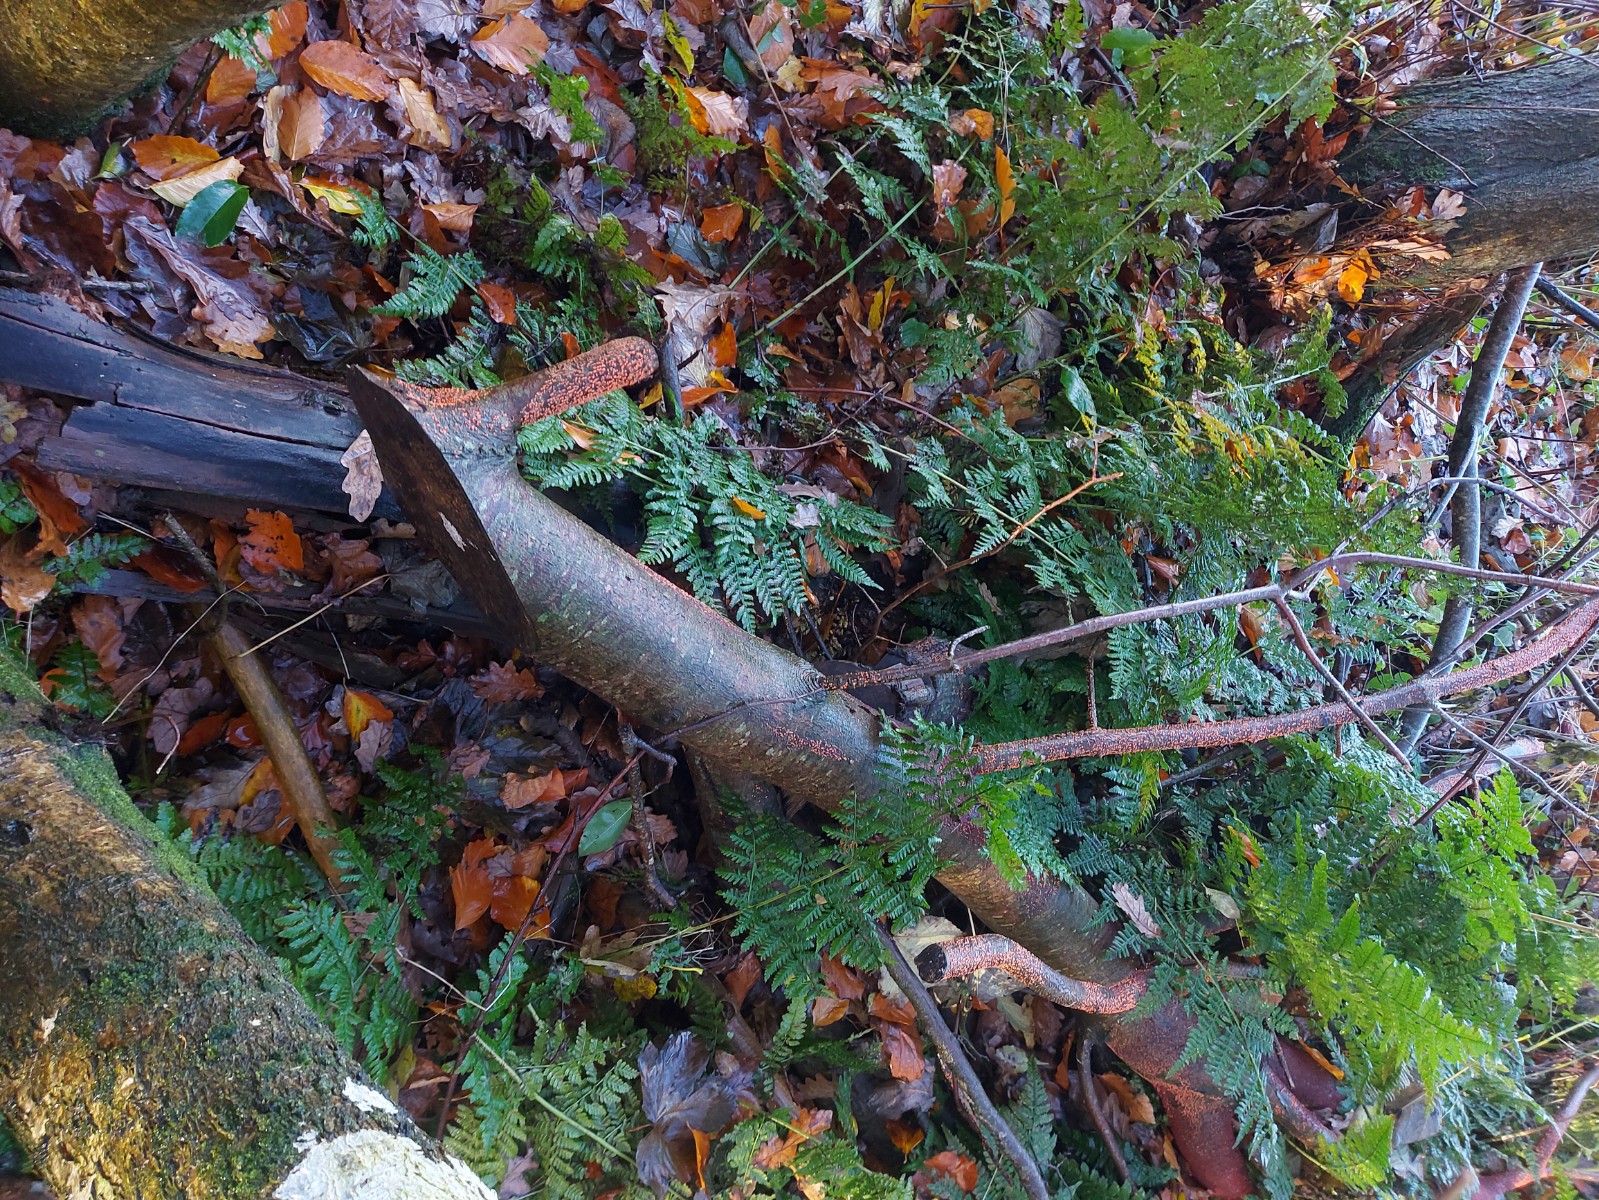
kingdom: Fungi
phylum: Ascomycota
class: Sordariomycetes
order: Hypocreales
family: Nectriaceae
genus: Nectria
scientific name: Nectria cinnabarina
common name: almindelig cinnobersvamp
